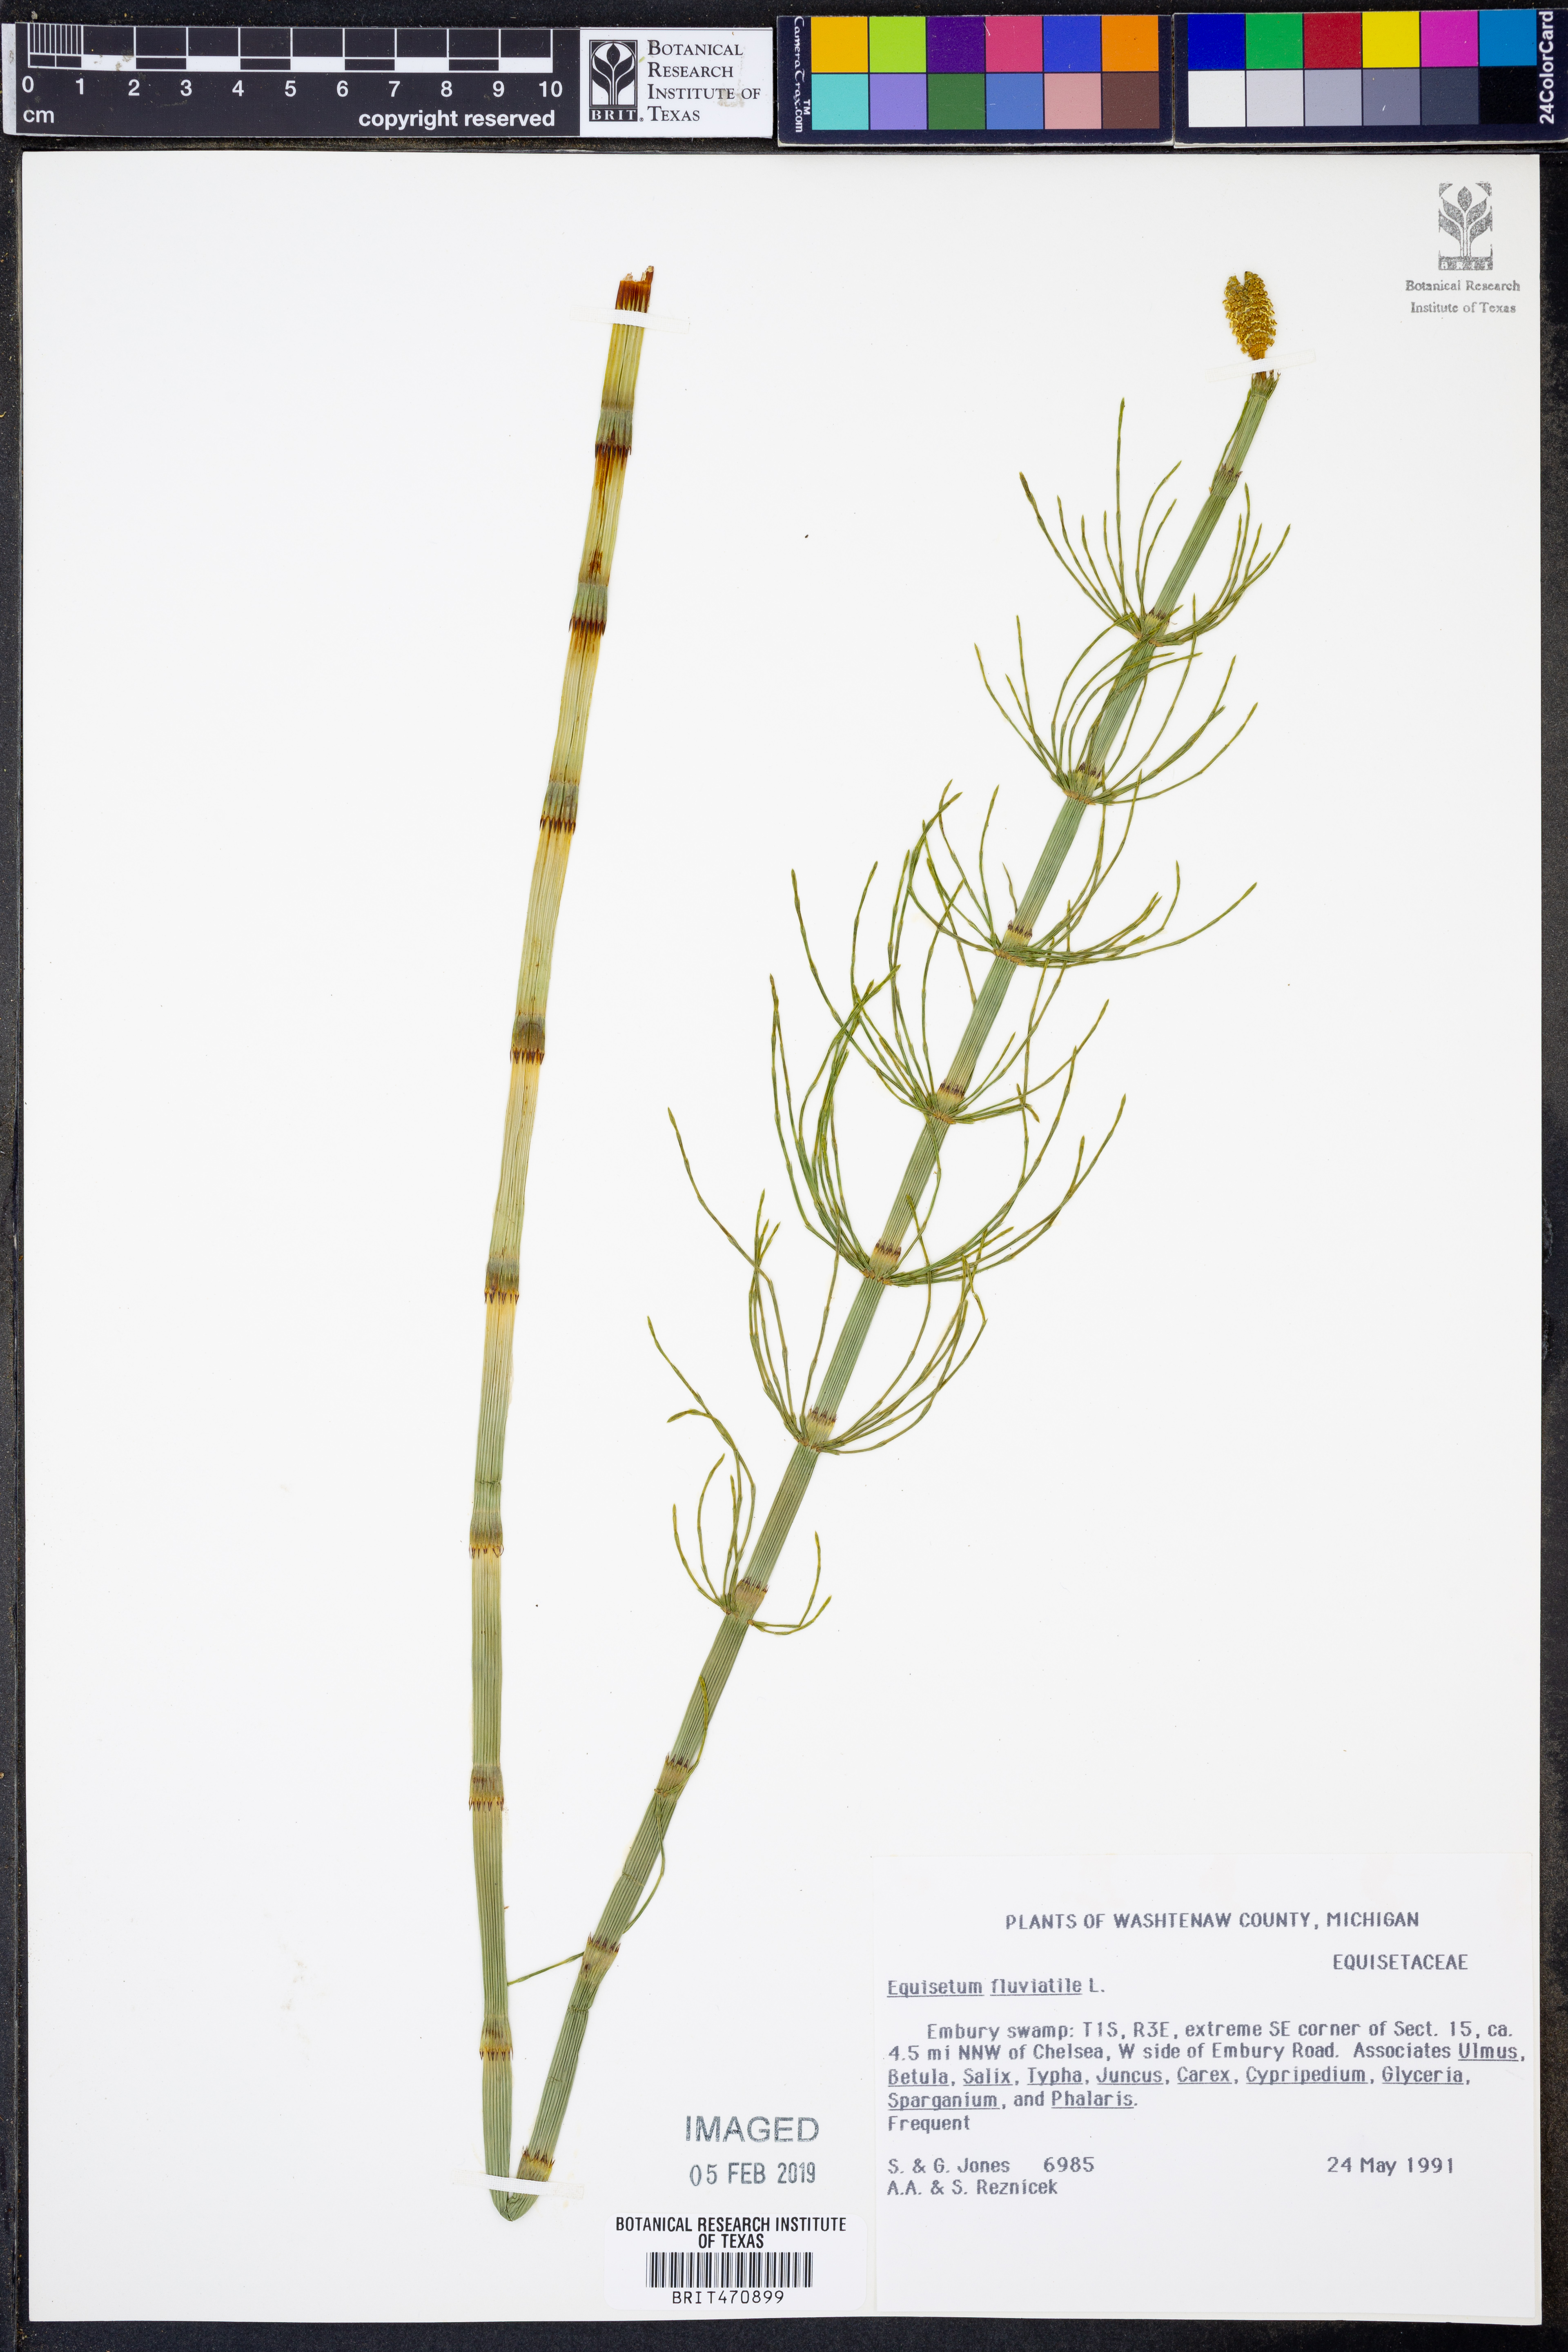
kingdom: Plantae
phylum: Tracheophyta
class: Polypodiopsida
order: Equisetales
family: Equisetaceae
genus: Equisetum
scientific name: Equisetum fluviatile
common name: Water horsetail
